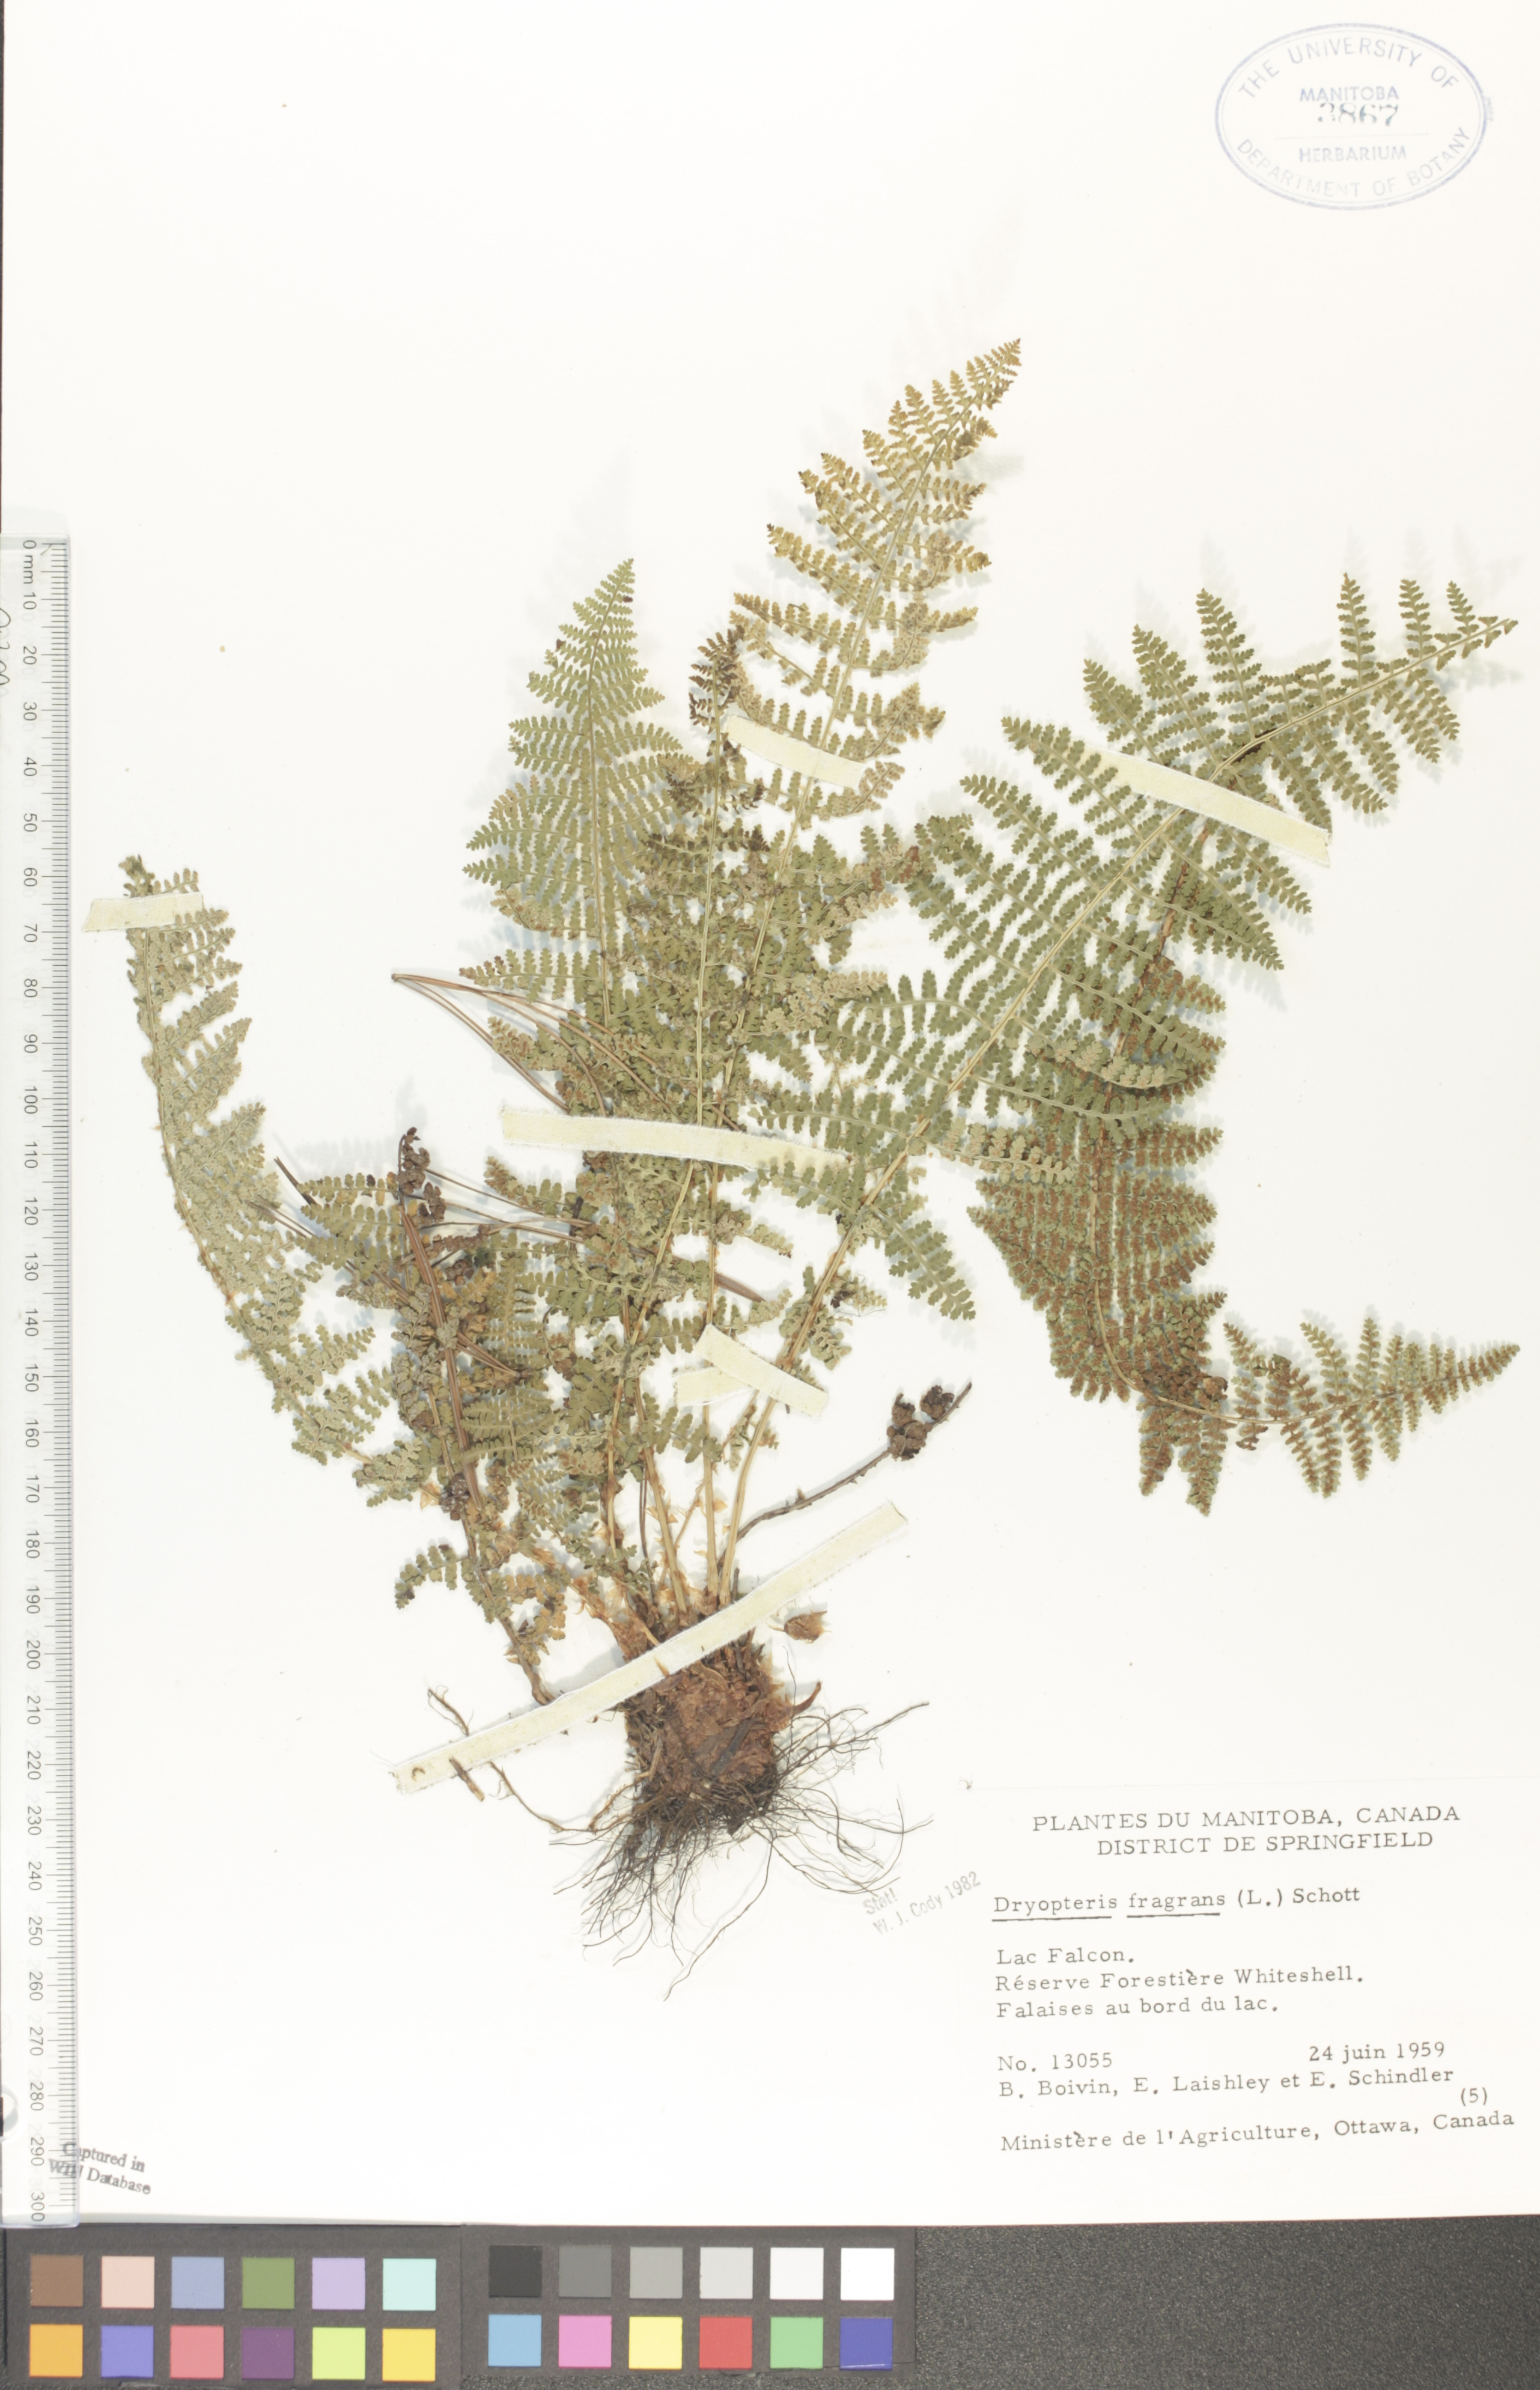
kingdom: Plantae
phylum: Tracheophyta
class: Polypodiopsida
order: Polypodiales
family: Dryopteridaceae
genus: Dryopteris
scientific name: Dryopteris fragrans
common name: Fragrant wood fern
